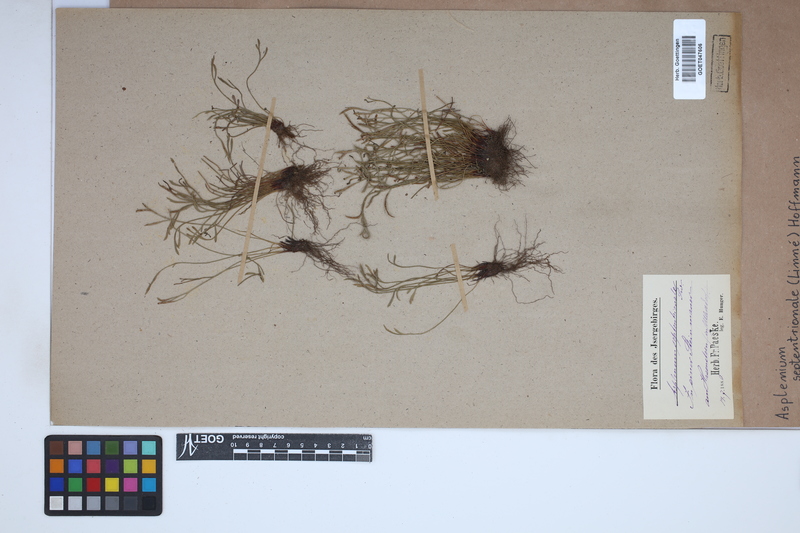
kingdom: Plantae
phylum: Tracheophyta
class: Polypodiopsida
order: Polypodiales
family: Aspleniaceae
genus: Asplenium
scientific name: Asplenium septentrionale
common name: Forked spleenwort
